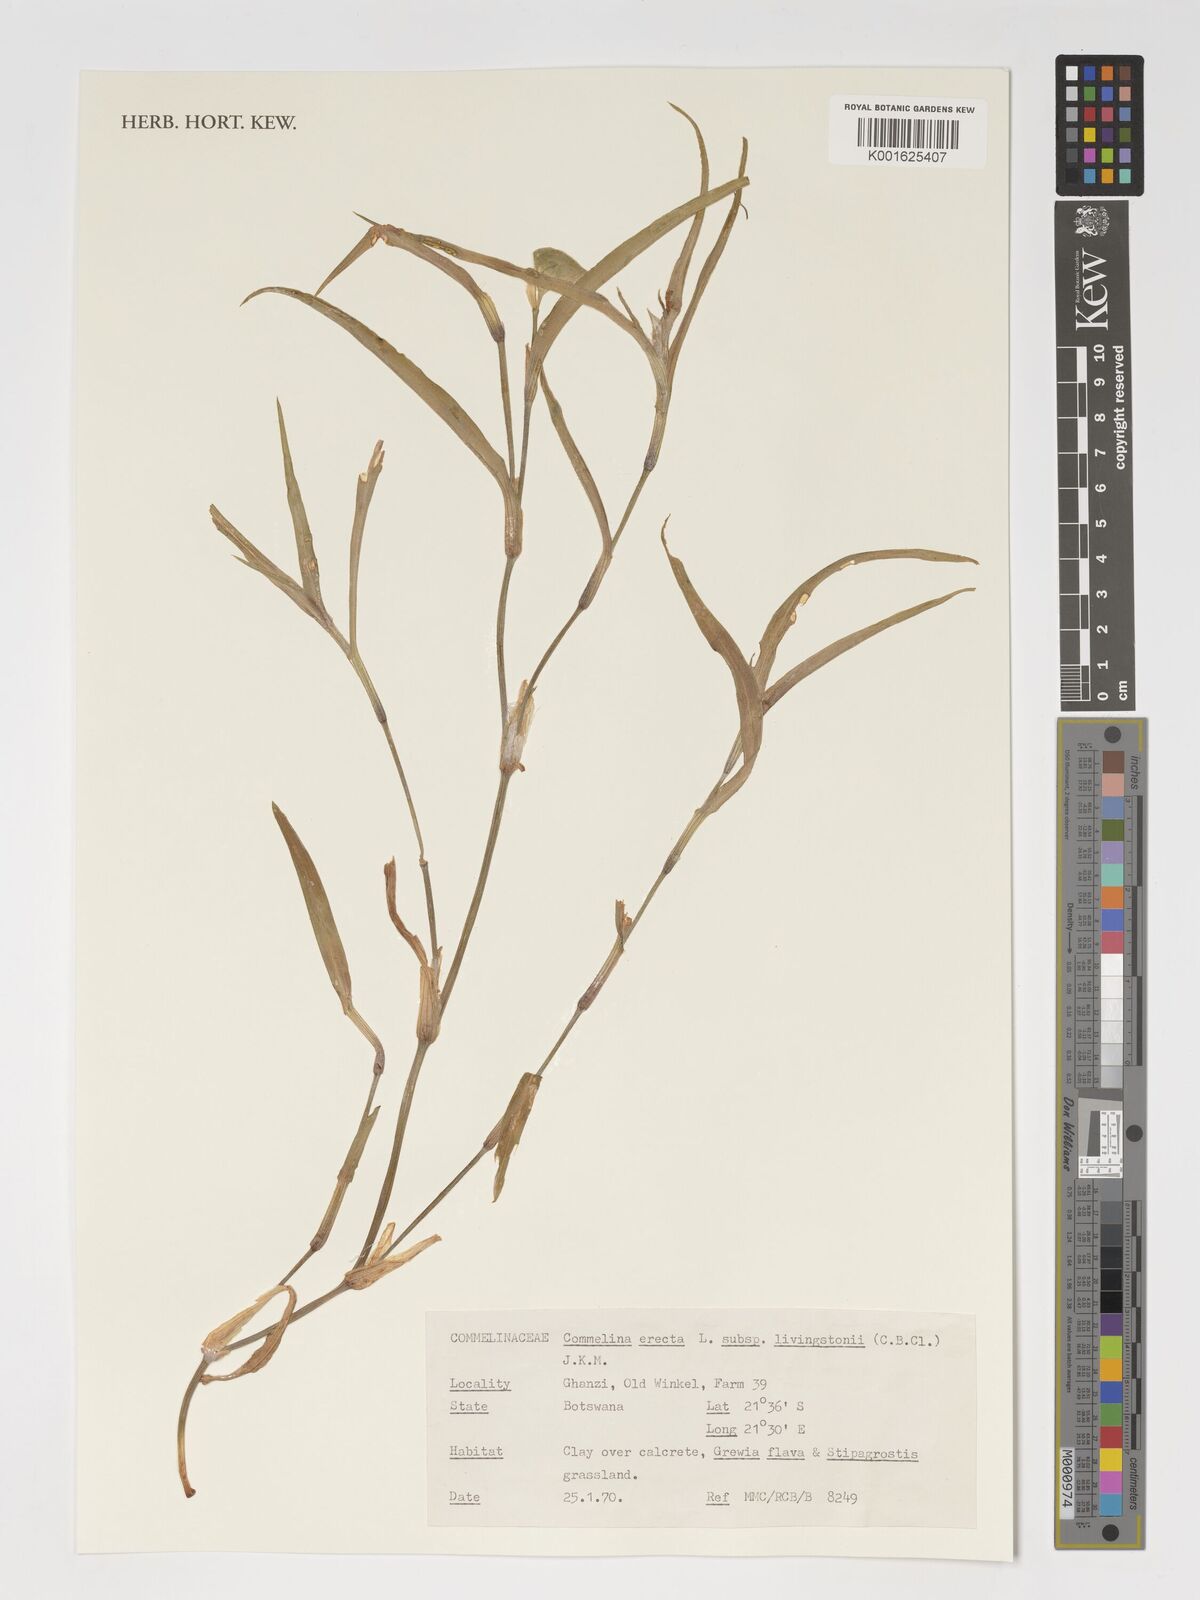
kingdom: Plantae
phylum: Tracheophyta
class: Liliopsida
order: Commelinales
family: Commelinaceae
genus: Commelina
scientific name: Commelina erecta
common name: Blousel blommetjie
